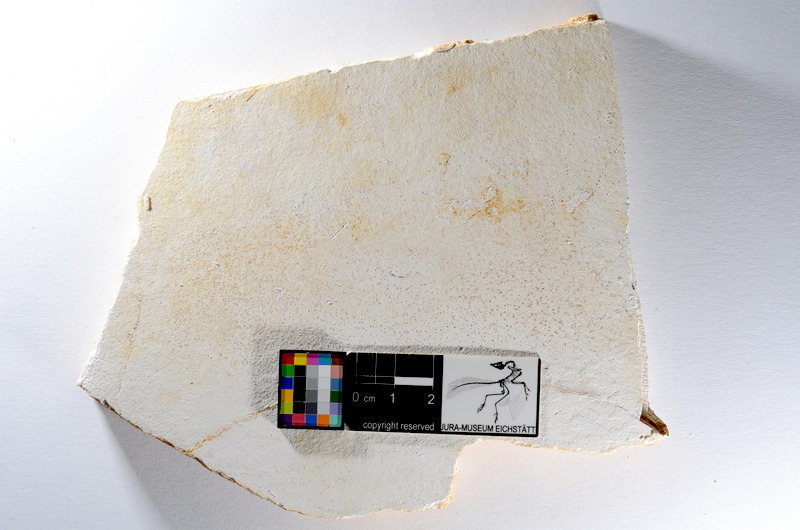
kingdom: Animalia
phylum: Chordata
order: Salmoniformes
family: Orthogonikleithridae
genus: Orthogonikleithrus
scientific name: Orthogonikleithrus hoelli
